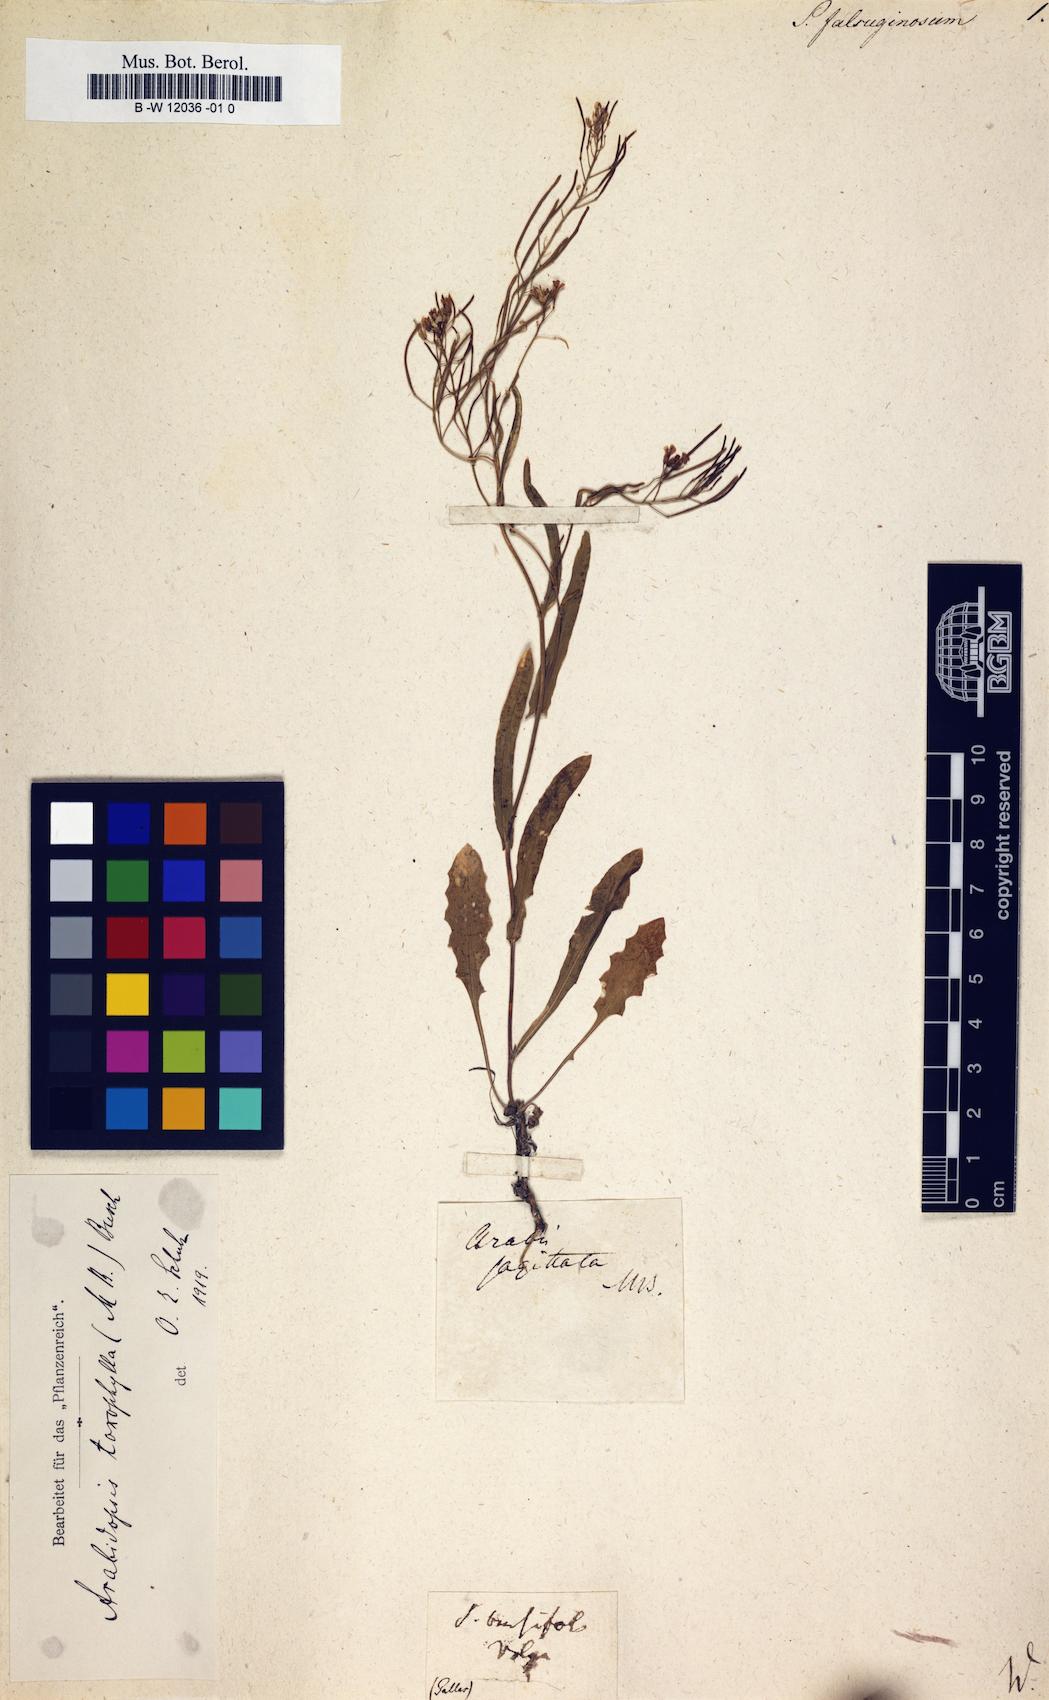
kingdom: Plantae
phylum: Tracheophyta
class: Magnoliopsida
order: Brassicales
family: Brassicaceae
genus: Eutrema
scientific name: Eutrema salsugineum
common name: Mouse-ear cress
